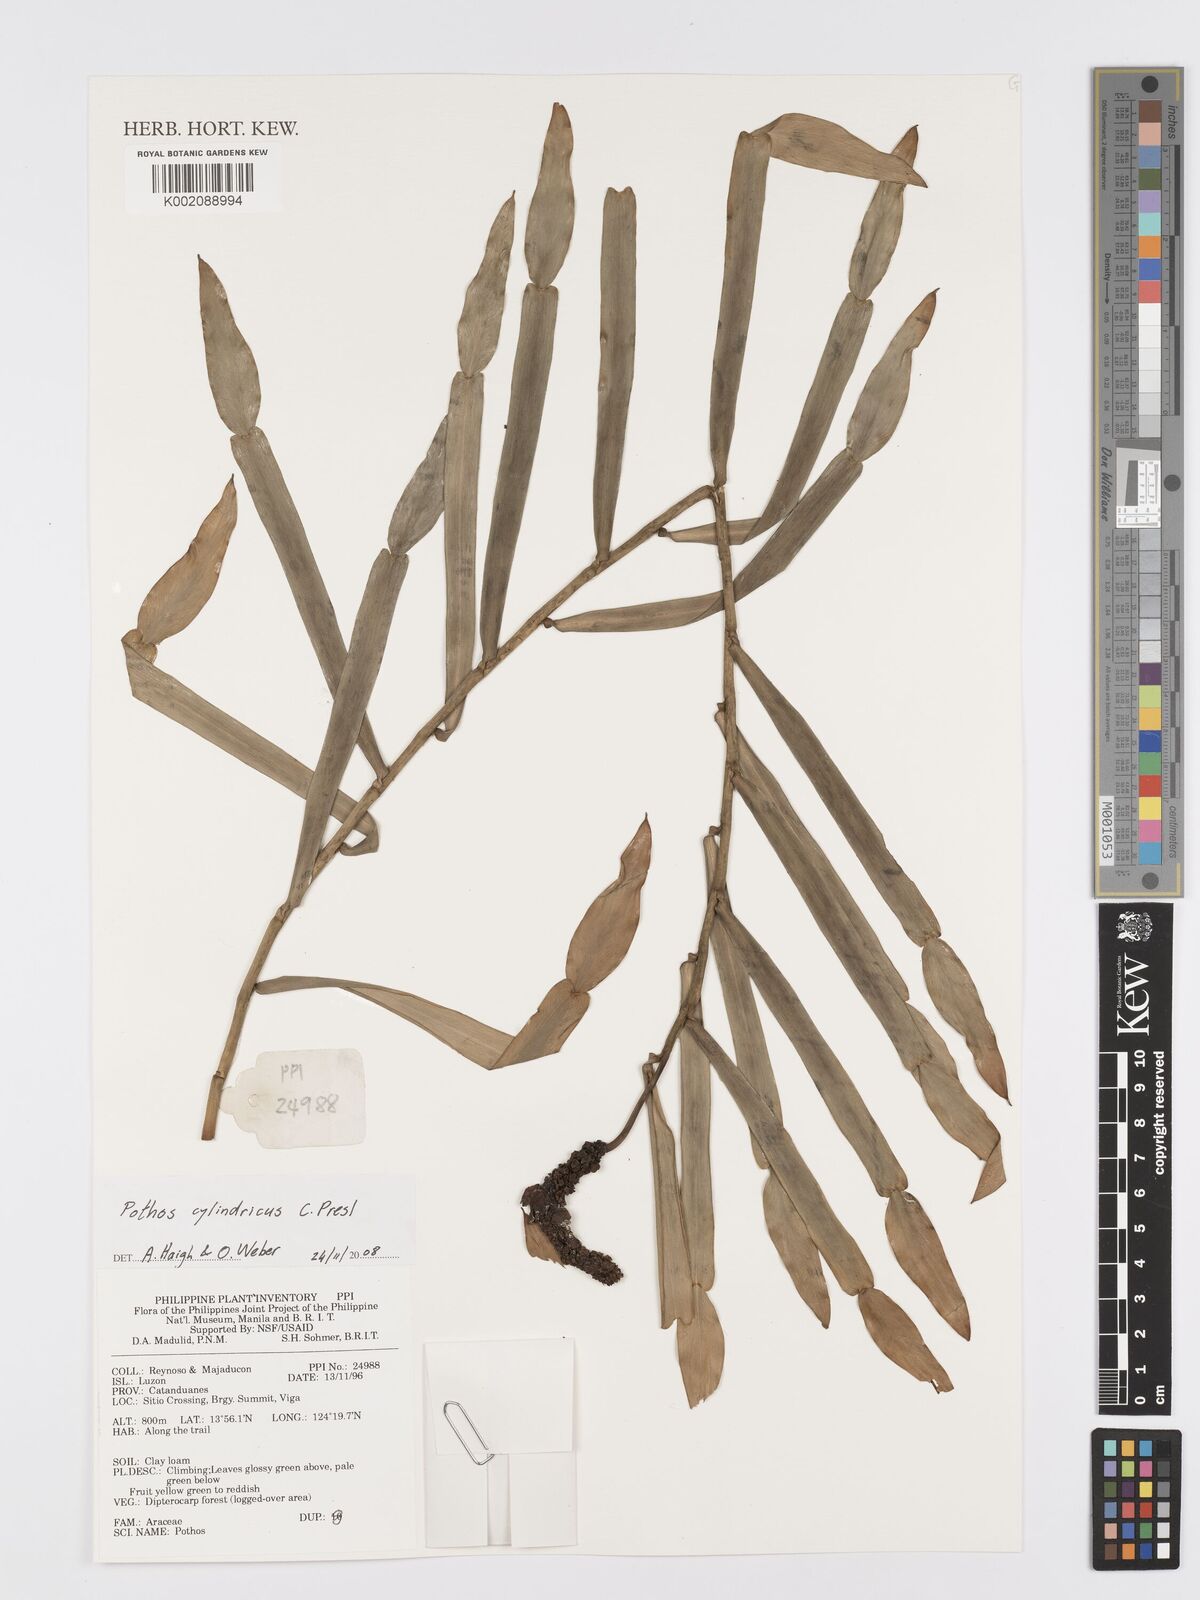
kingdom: Plantae
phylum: Tracheophyta
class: Liliopsida
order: Alismatales
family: Araceae
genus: Pothos
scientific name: Pothos cylindricus
